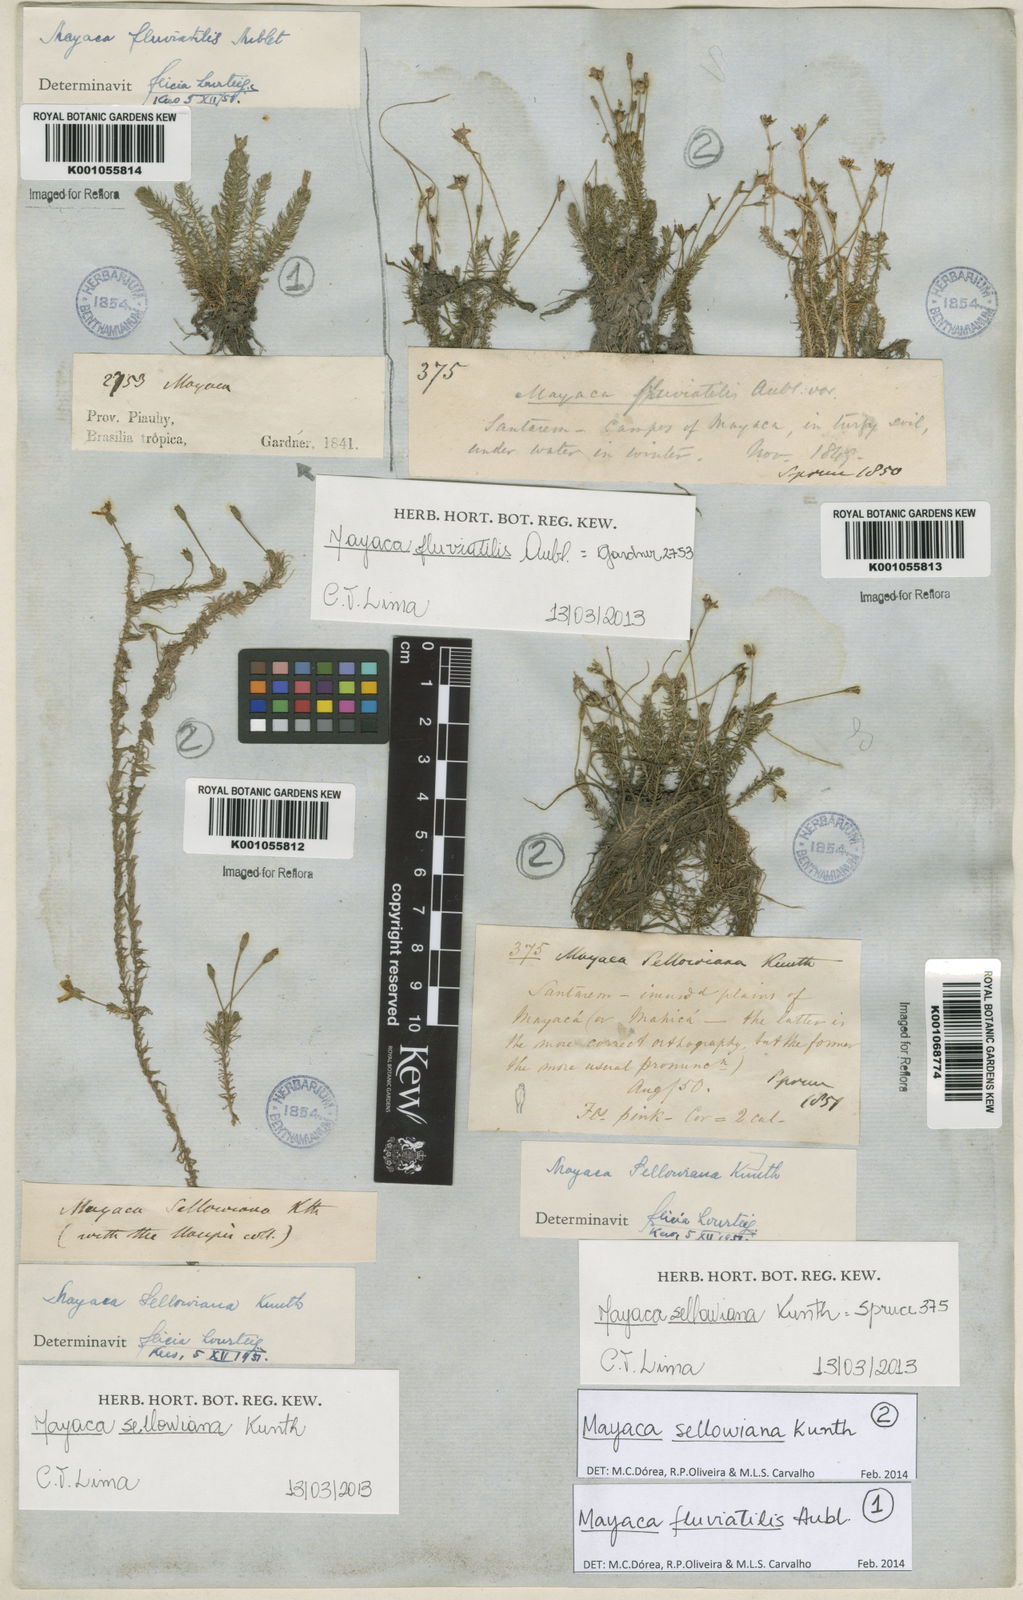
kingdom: Plantae
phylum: Tracheophyta
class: Liliopsida
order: Poales
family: Mayacaceae
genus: Mayaca
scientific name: Mayaca sellowiana
